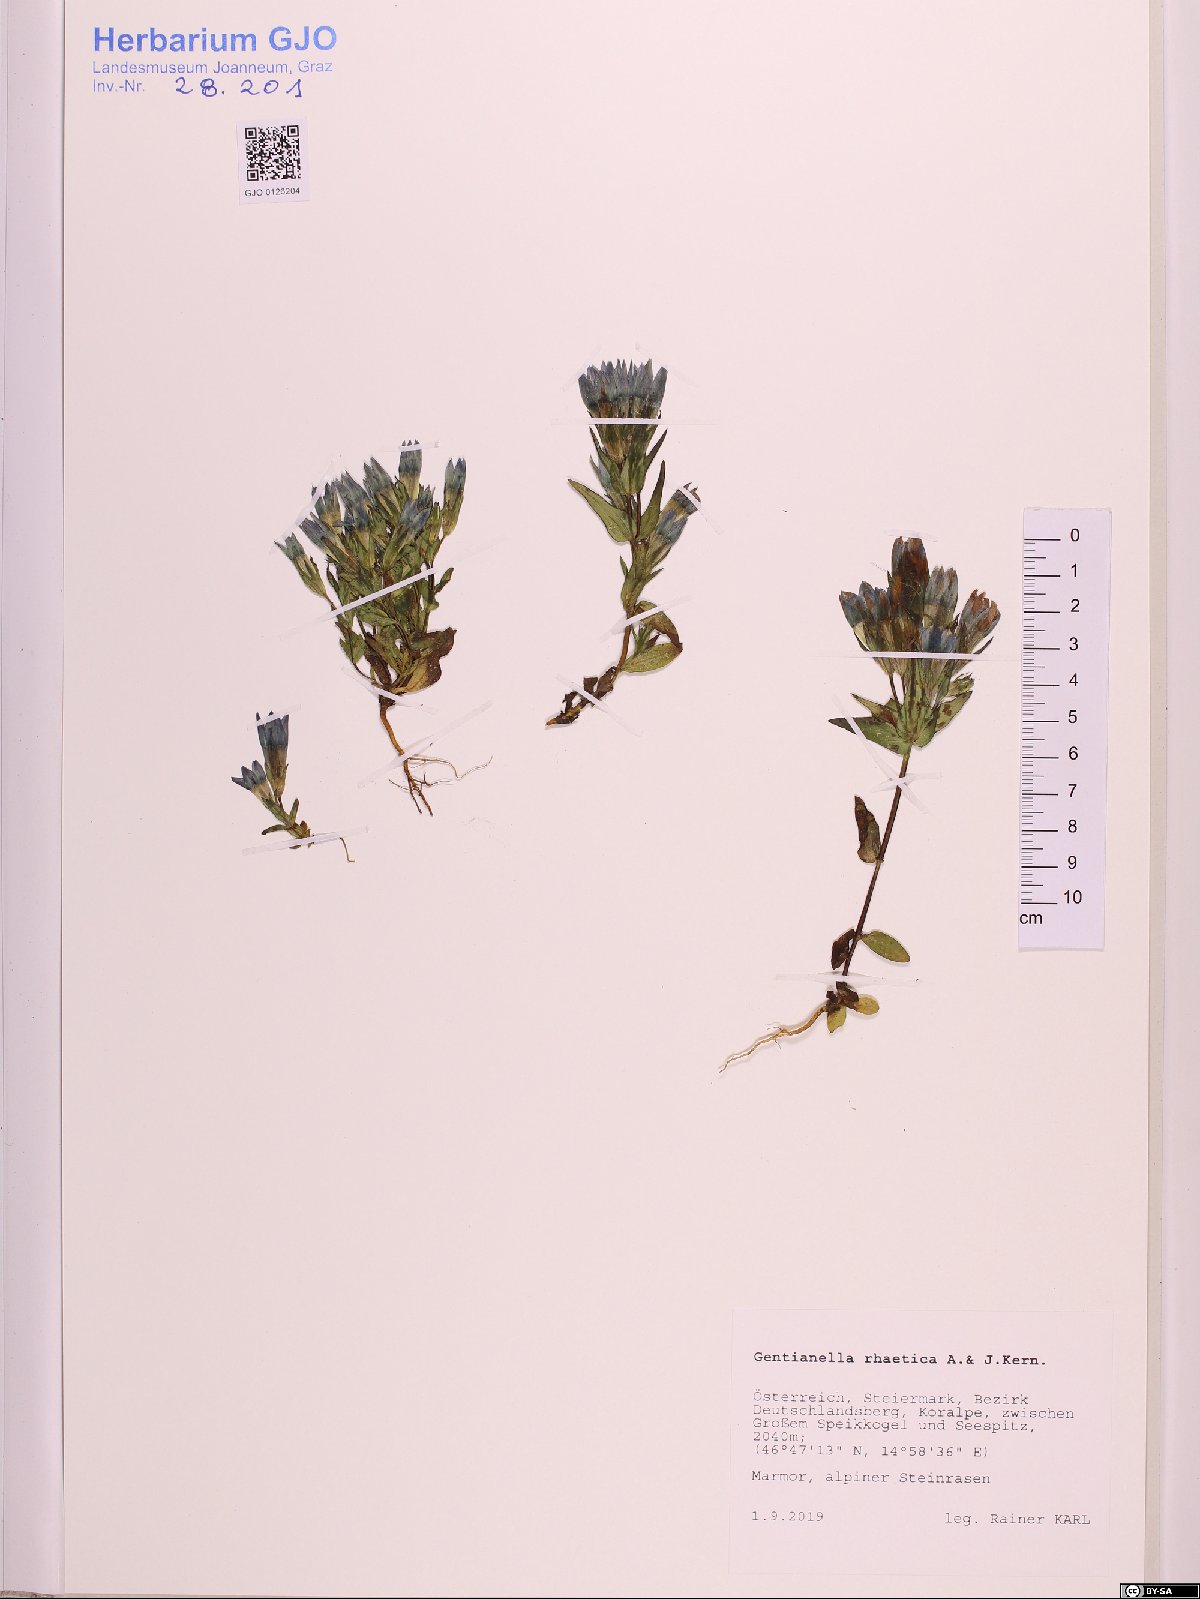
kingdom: Plantae
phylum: Tracheophyta
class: Magnoliopsida
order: Gentianales
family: Gentianaceae
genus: Gentianella
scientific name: Gentianella rhaetica
